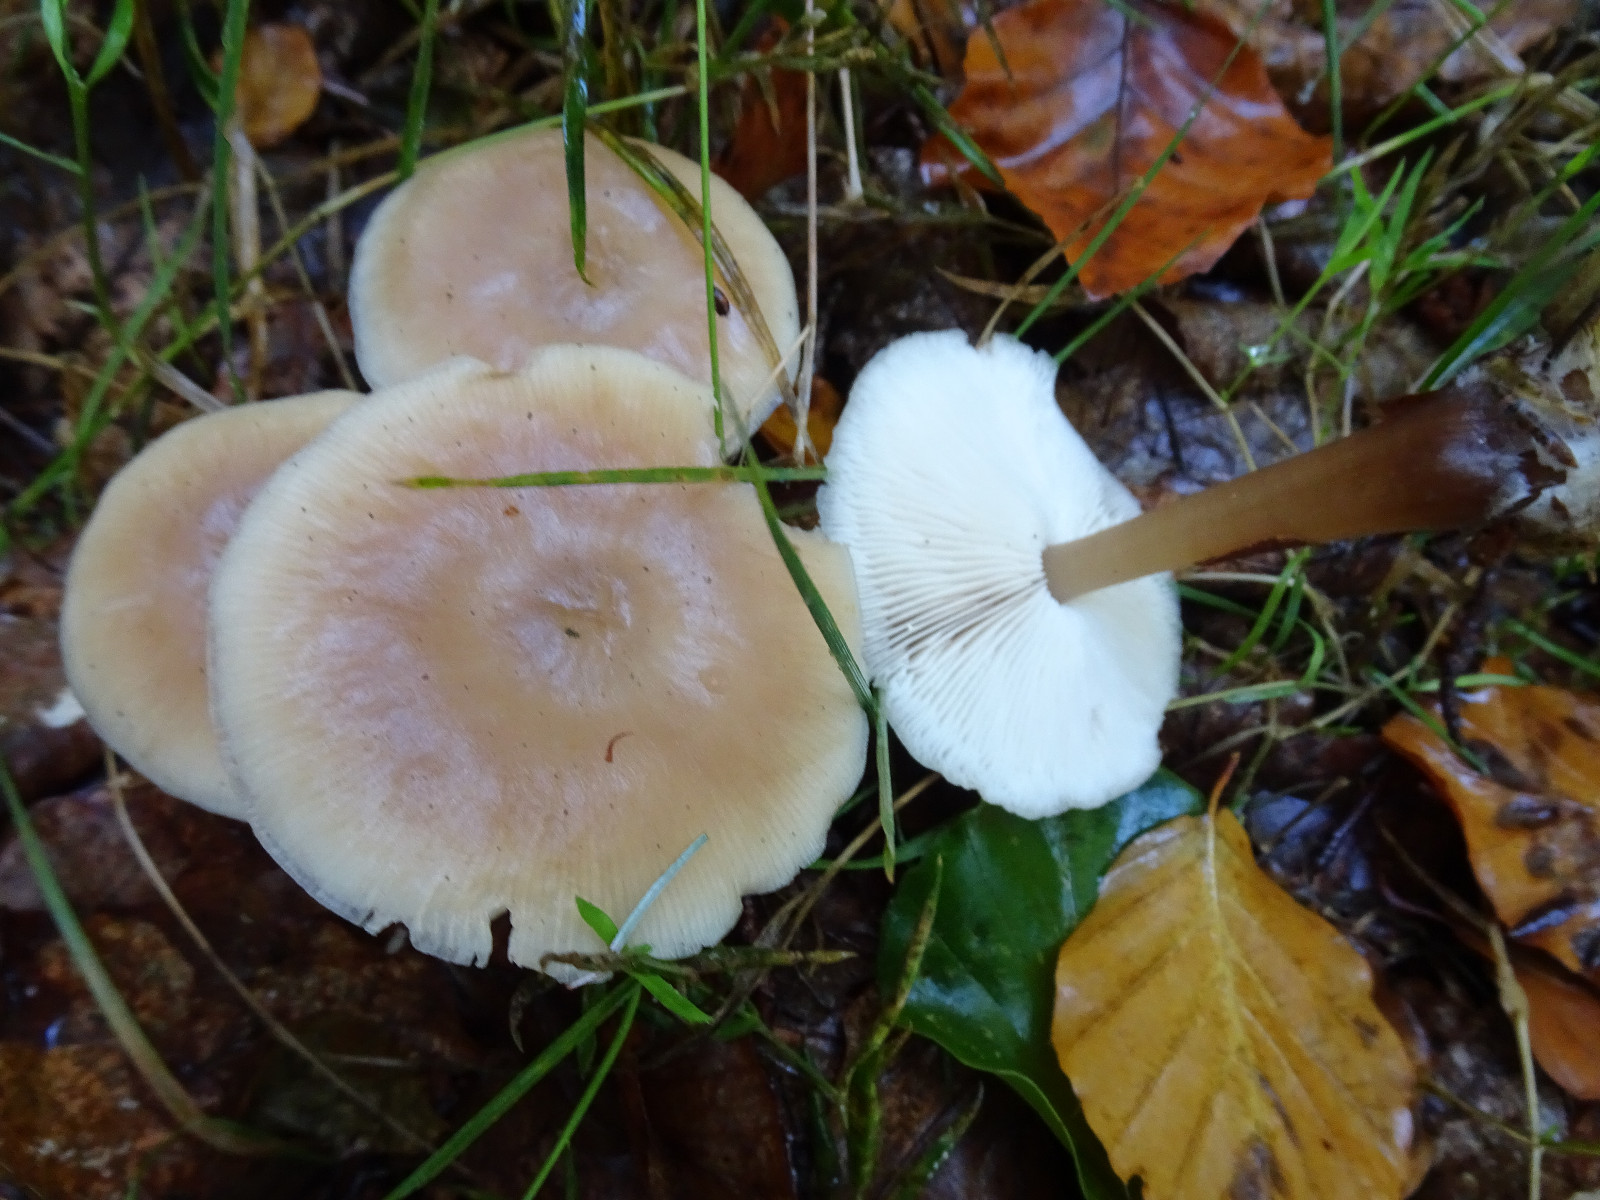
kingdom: Fungi
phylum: Basidiomycota
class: Agaricomycetes
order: Agaricales
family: Omphalotaceae
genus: Rhodocollybia
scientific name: Rhodocollybia asema
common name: horngrå fladhat
